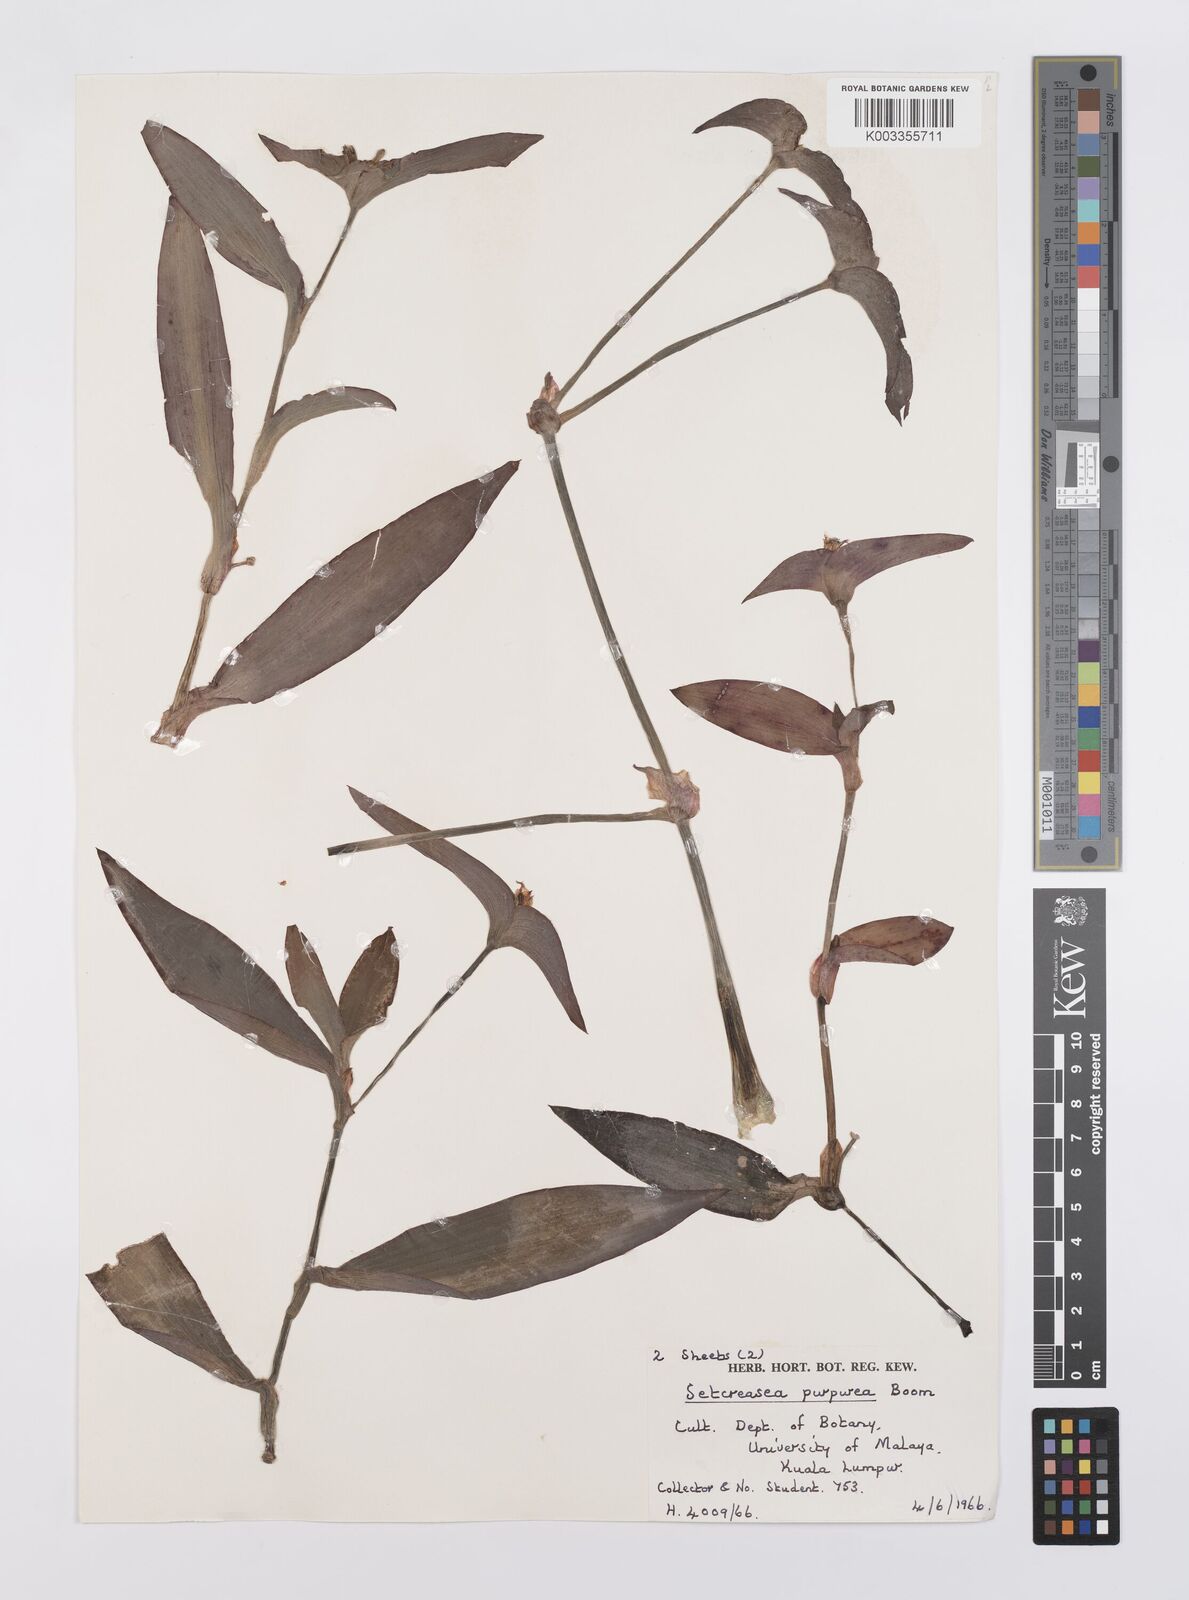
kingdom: Plantae
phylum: Tracheophyta
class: Liliopsida
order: Commelinales
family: Commelinaceae
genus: Callisia
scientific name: Callisia purpurascens
